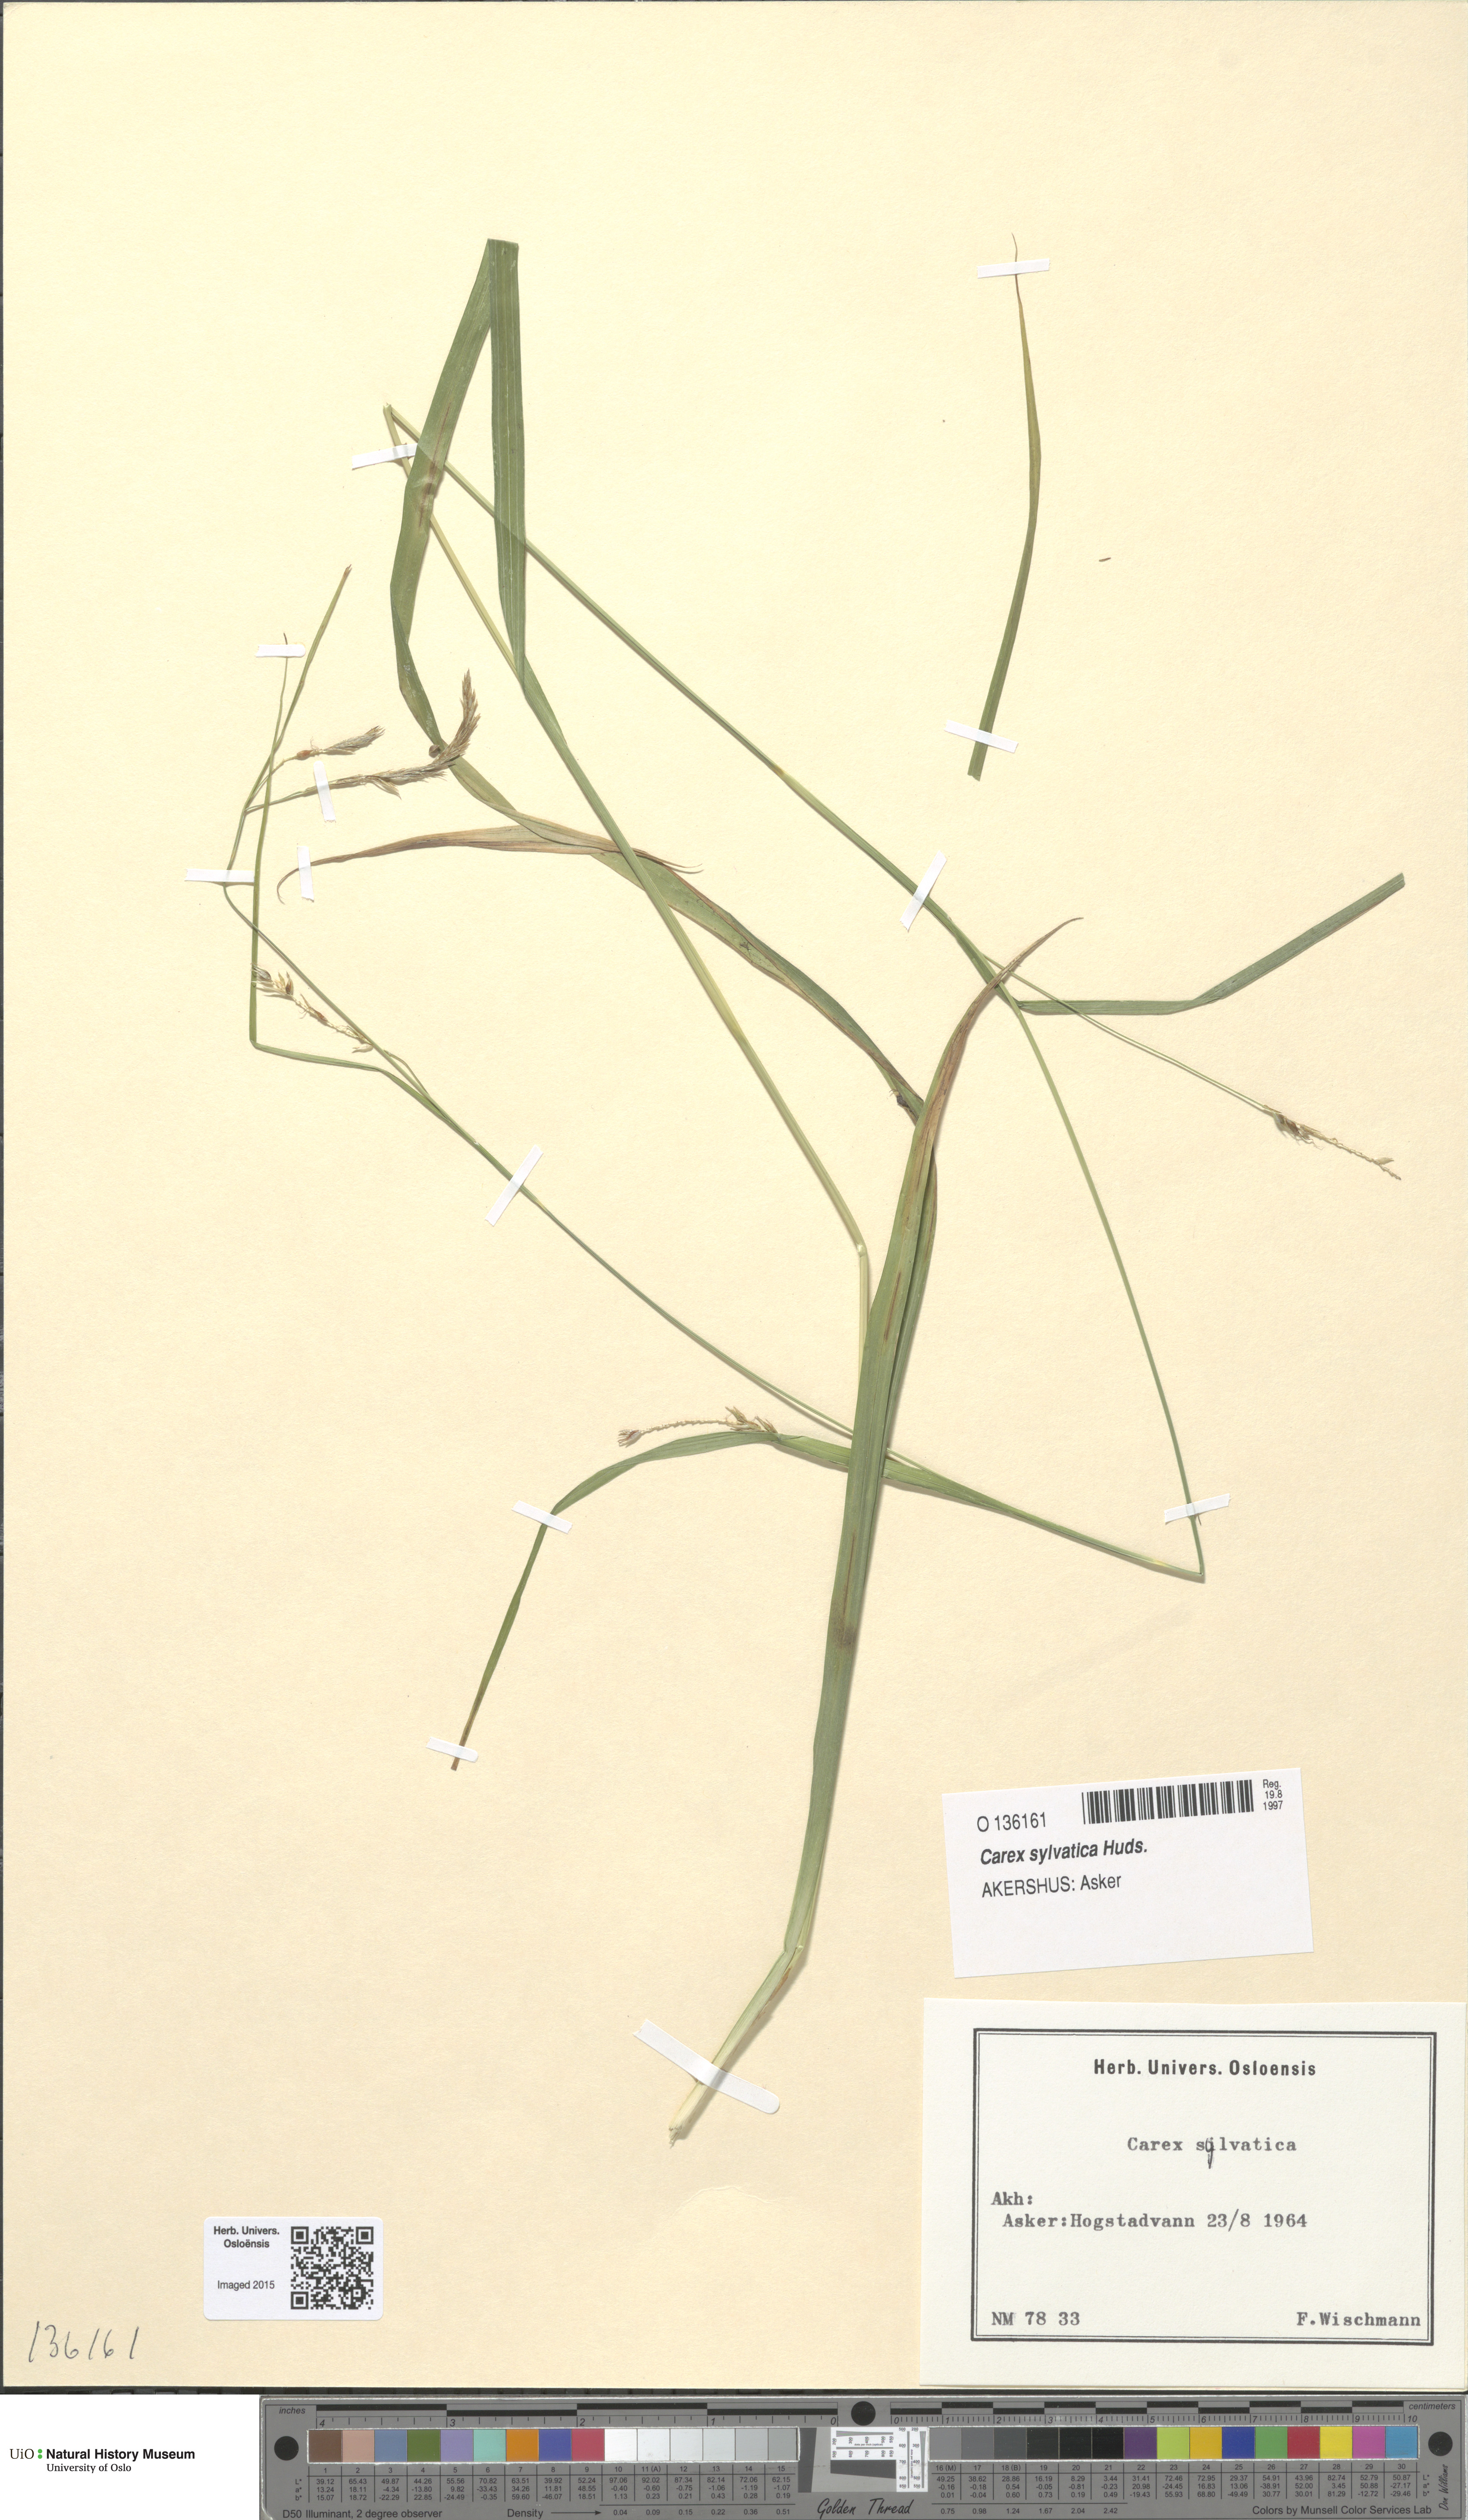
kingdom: Plantae
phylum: Tracheophyta
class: Liliopsida
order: Poales
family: Cyperaceae
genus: Carex
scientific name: Carex sylvatica
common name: Wood-sedge
